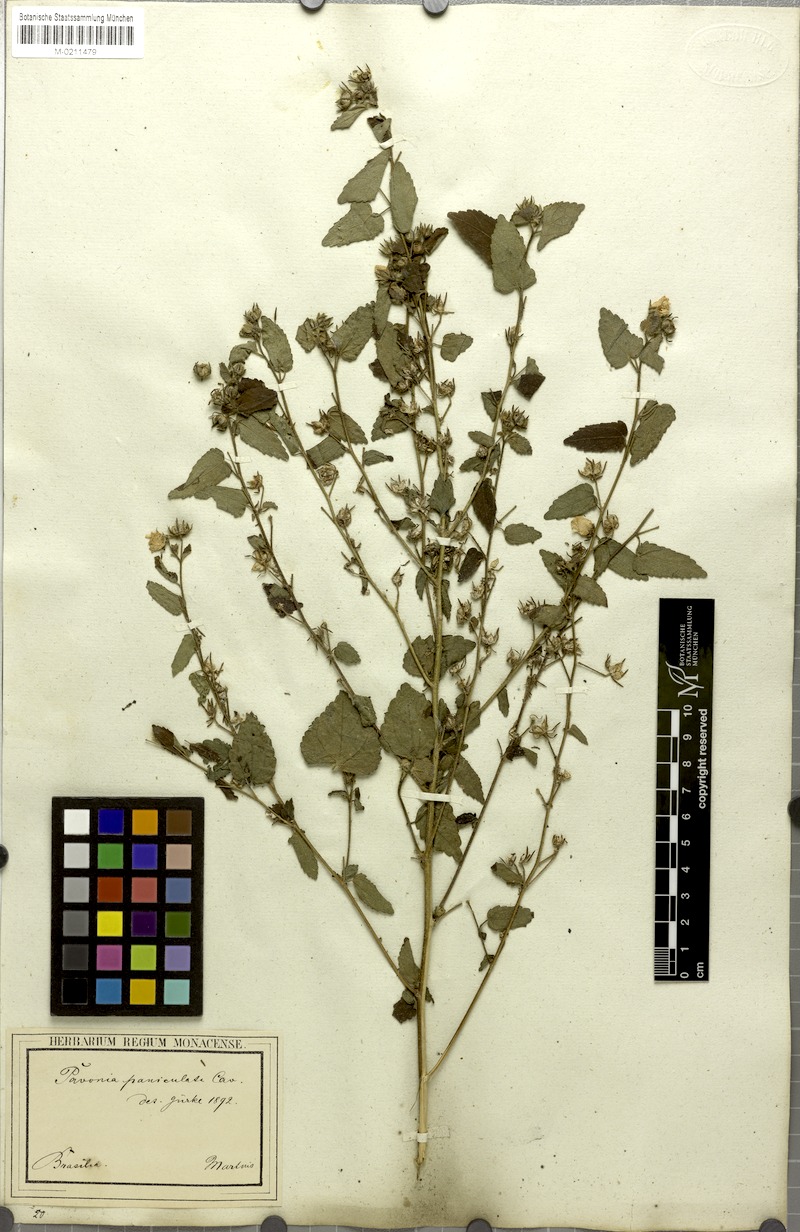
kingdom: Plantae
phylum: Tracheophyta
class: Magnoliopsida
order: Malvales
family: Malvaceae
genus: Pavonia
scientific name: Pavonia paniculata
